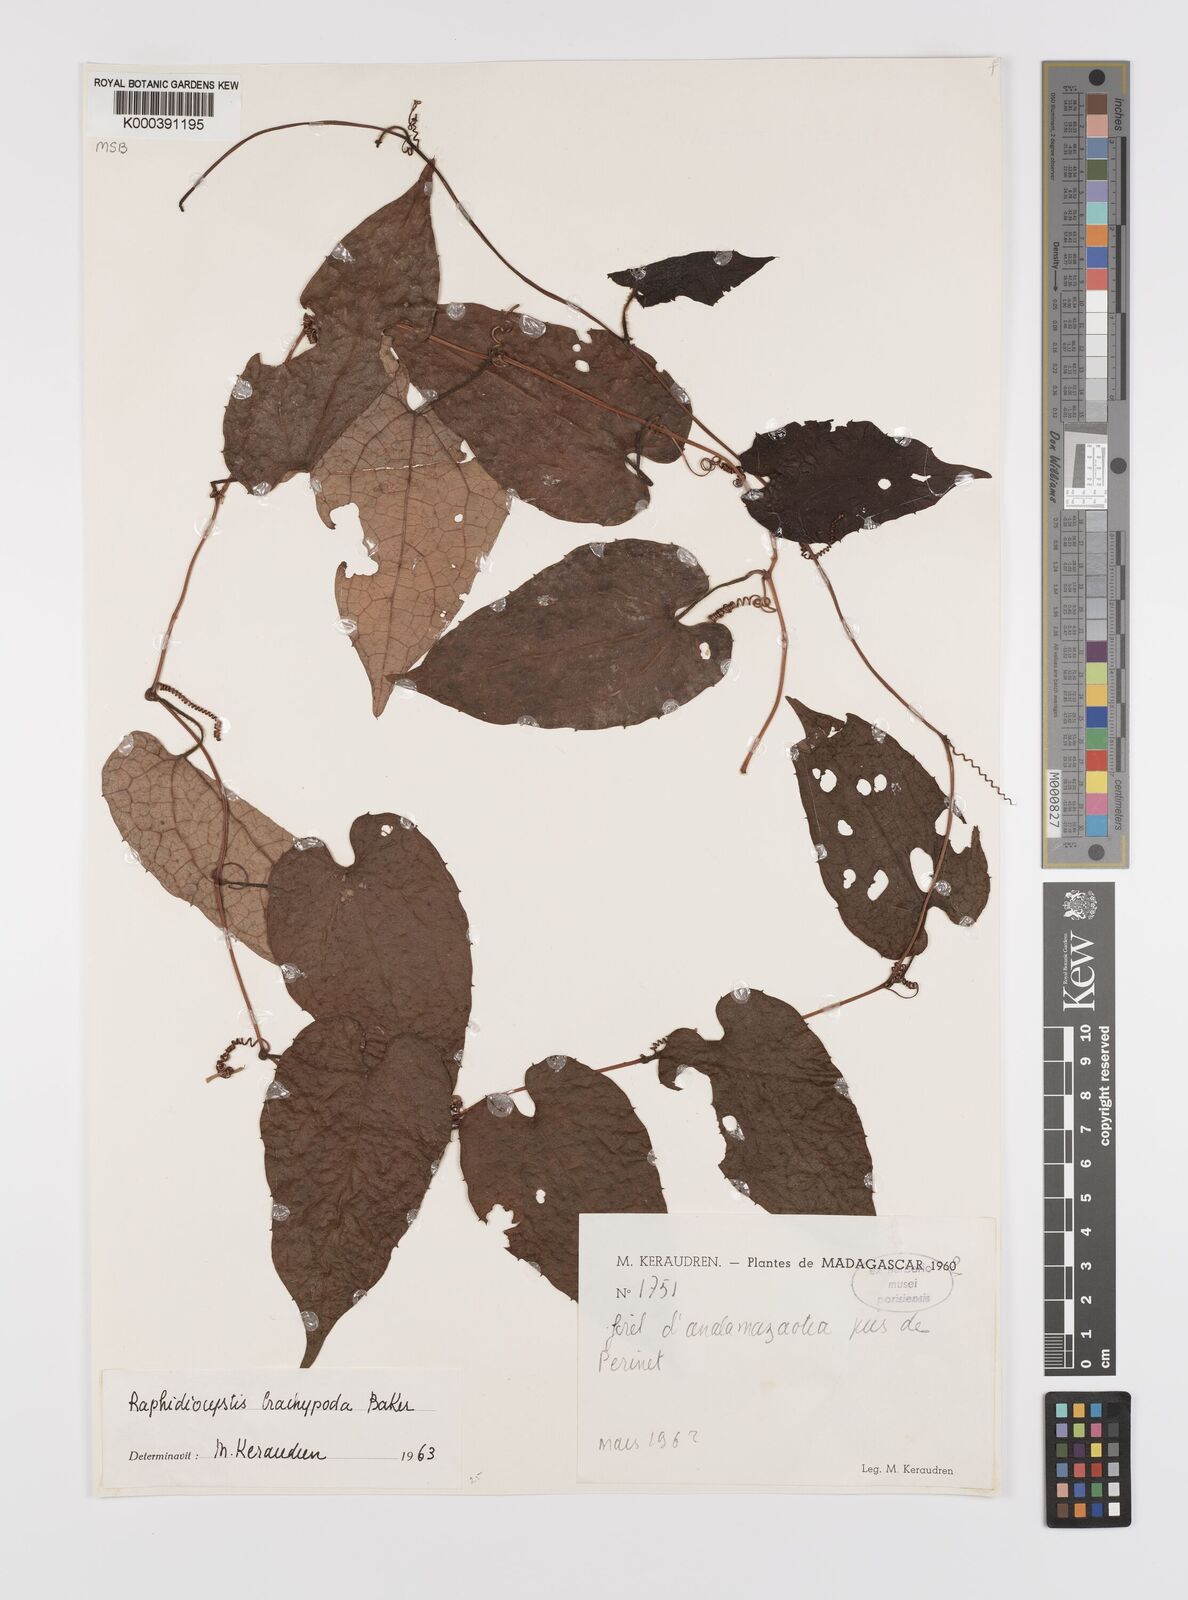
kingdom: Plantae
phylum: Tracheophyta
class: Magnoliopsida
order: Cucurbitales
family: Cucurbitaceae
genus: Raphidiocystis
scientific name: Raphidiocystis brachypoda
